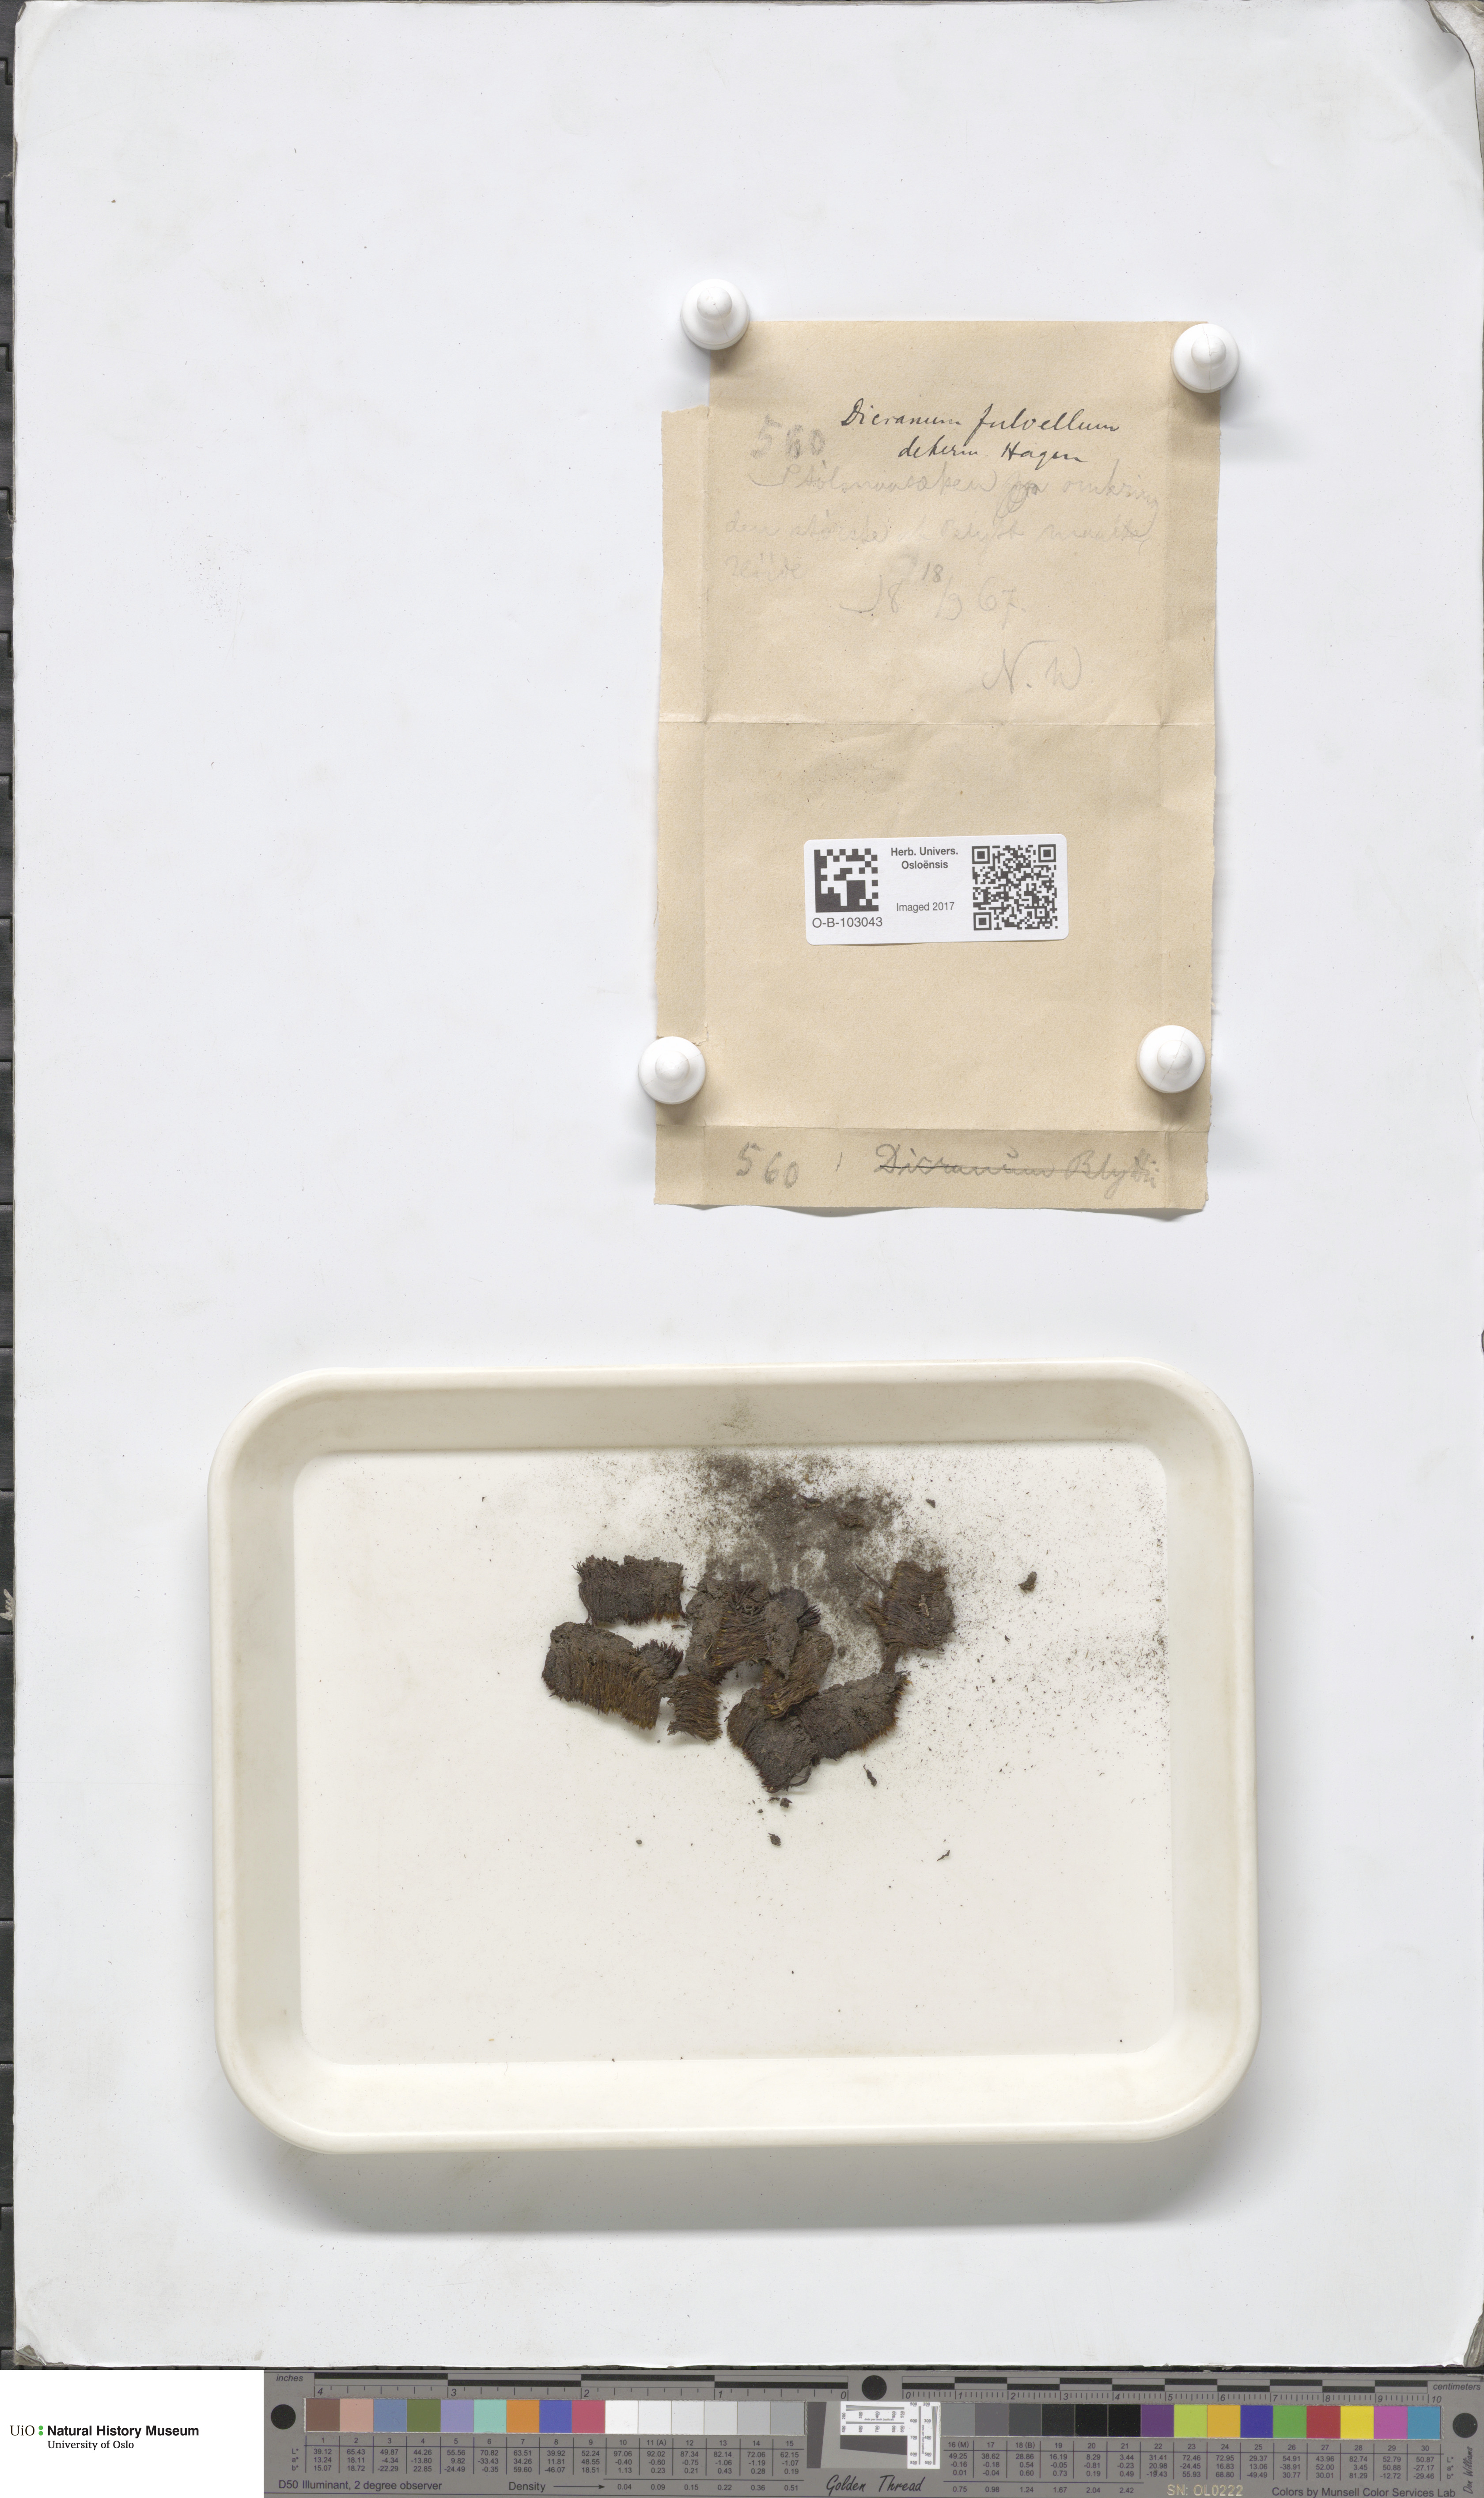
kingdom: Plantae
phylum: Bryophyta
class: Bryopsida
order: Dicranales
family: Rhabdoweisiaceae
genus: Arctoa
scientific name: Arctoa fulvella
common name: Tawny fork moss
